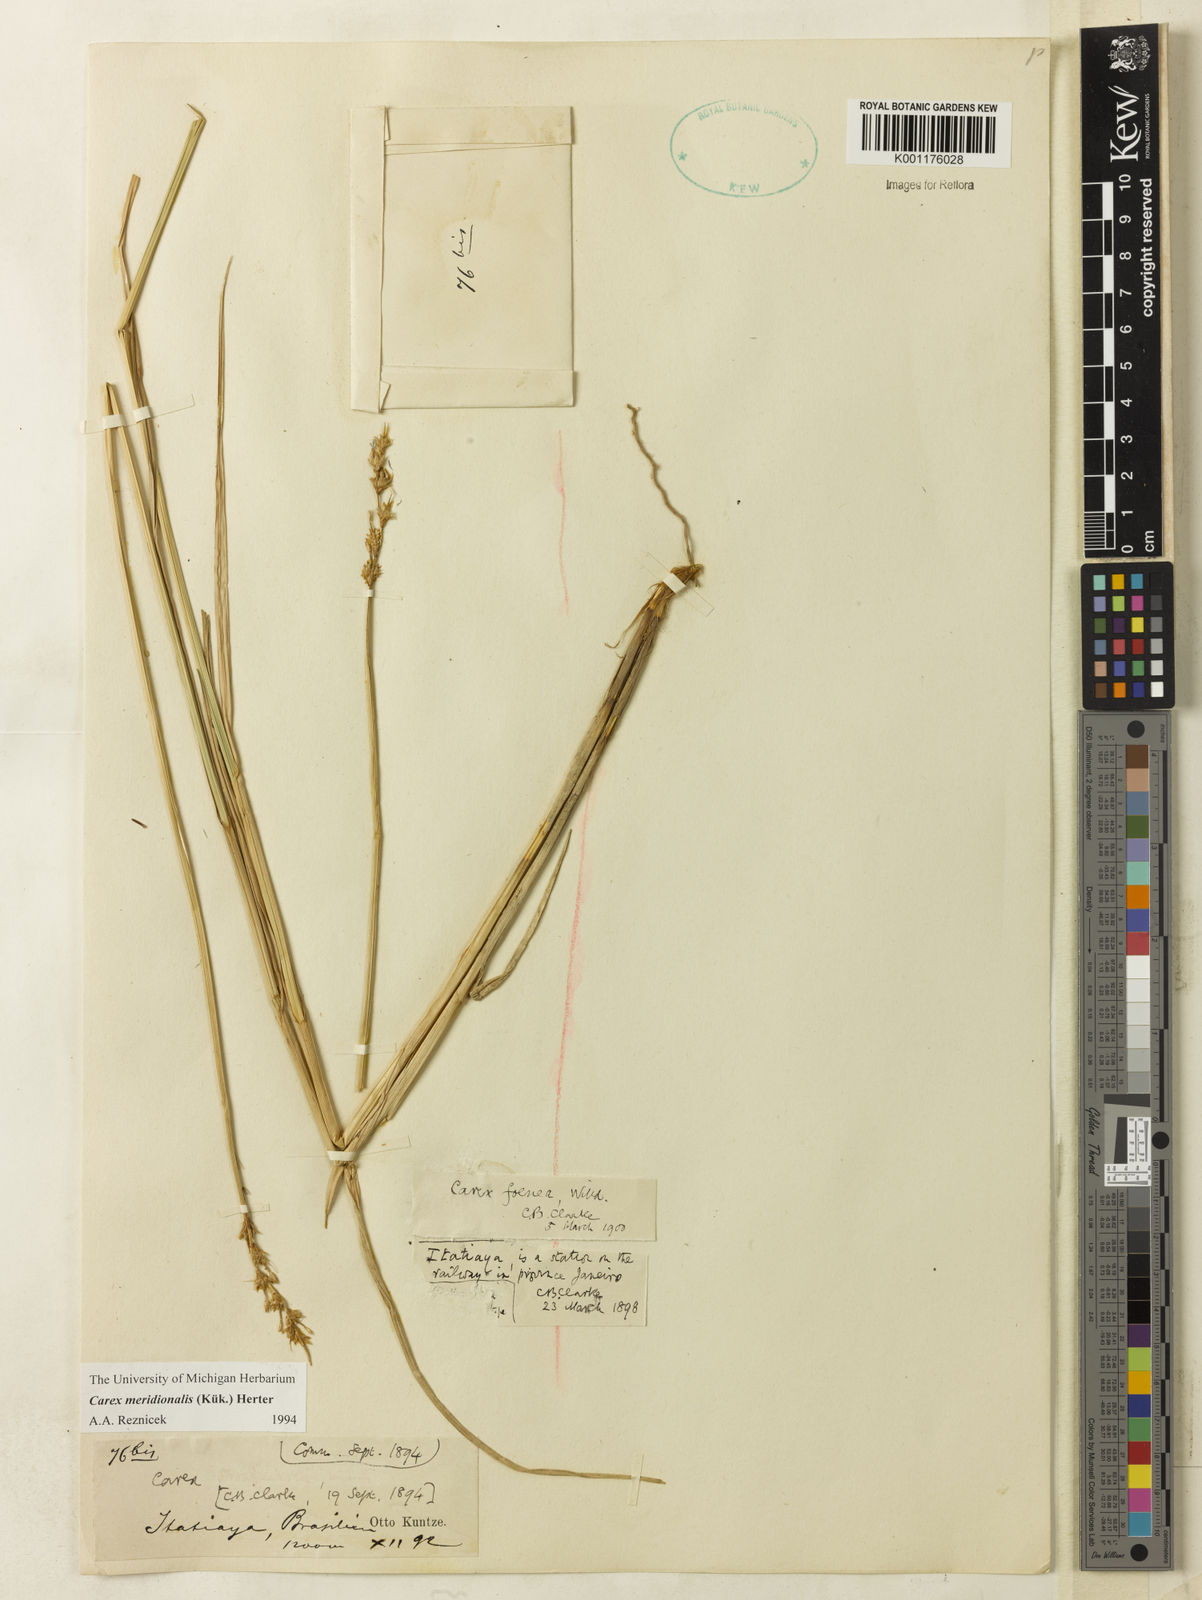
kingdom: Plantae
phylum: Tracheophyta
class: Liliopsida
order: Poales
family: Cyperaceae
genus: Carex
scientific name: Carex meridionalis
